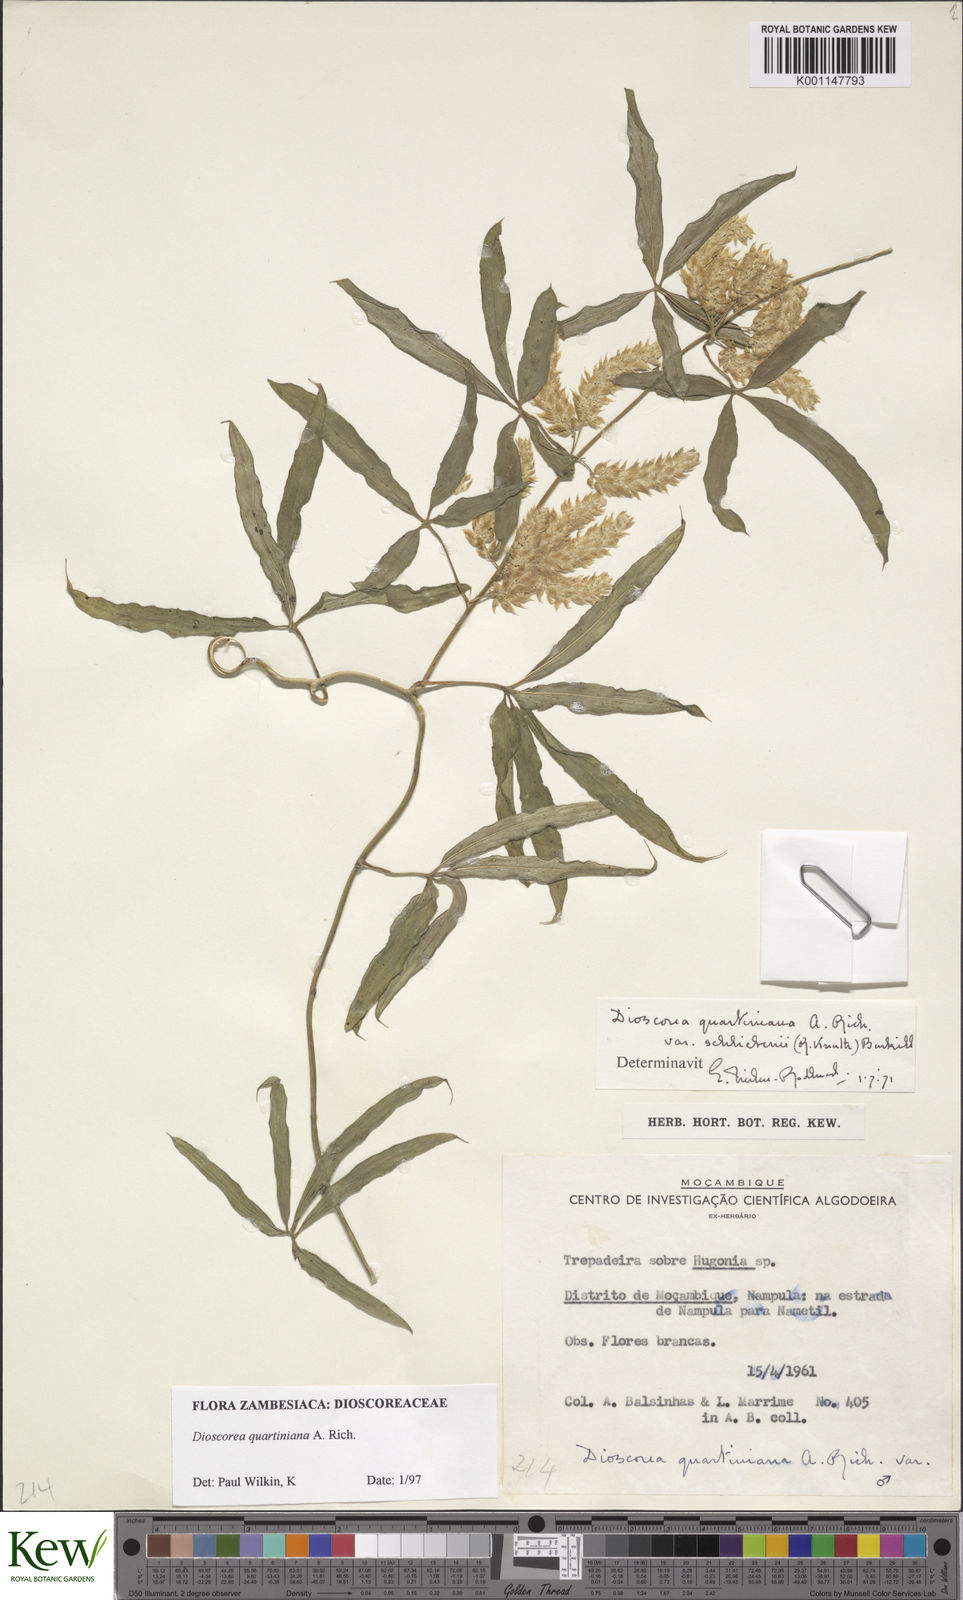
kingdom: Plantae
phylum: Tracheophyta
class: Liliopsida
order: Dioscoreales
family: Dioscoreaceae
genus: Dioscorea
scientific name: Dioscorea quartiniana
